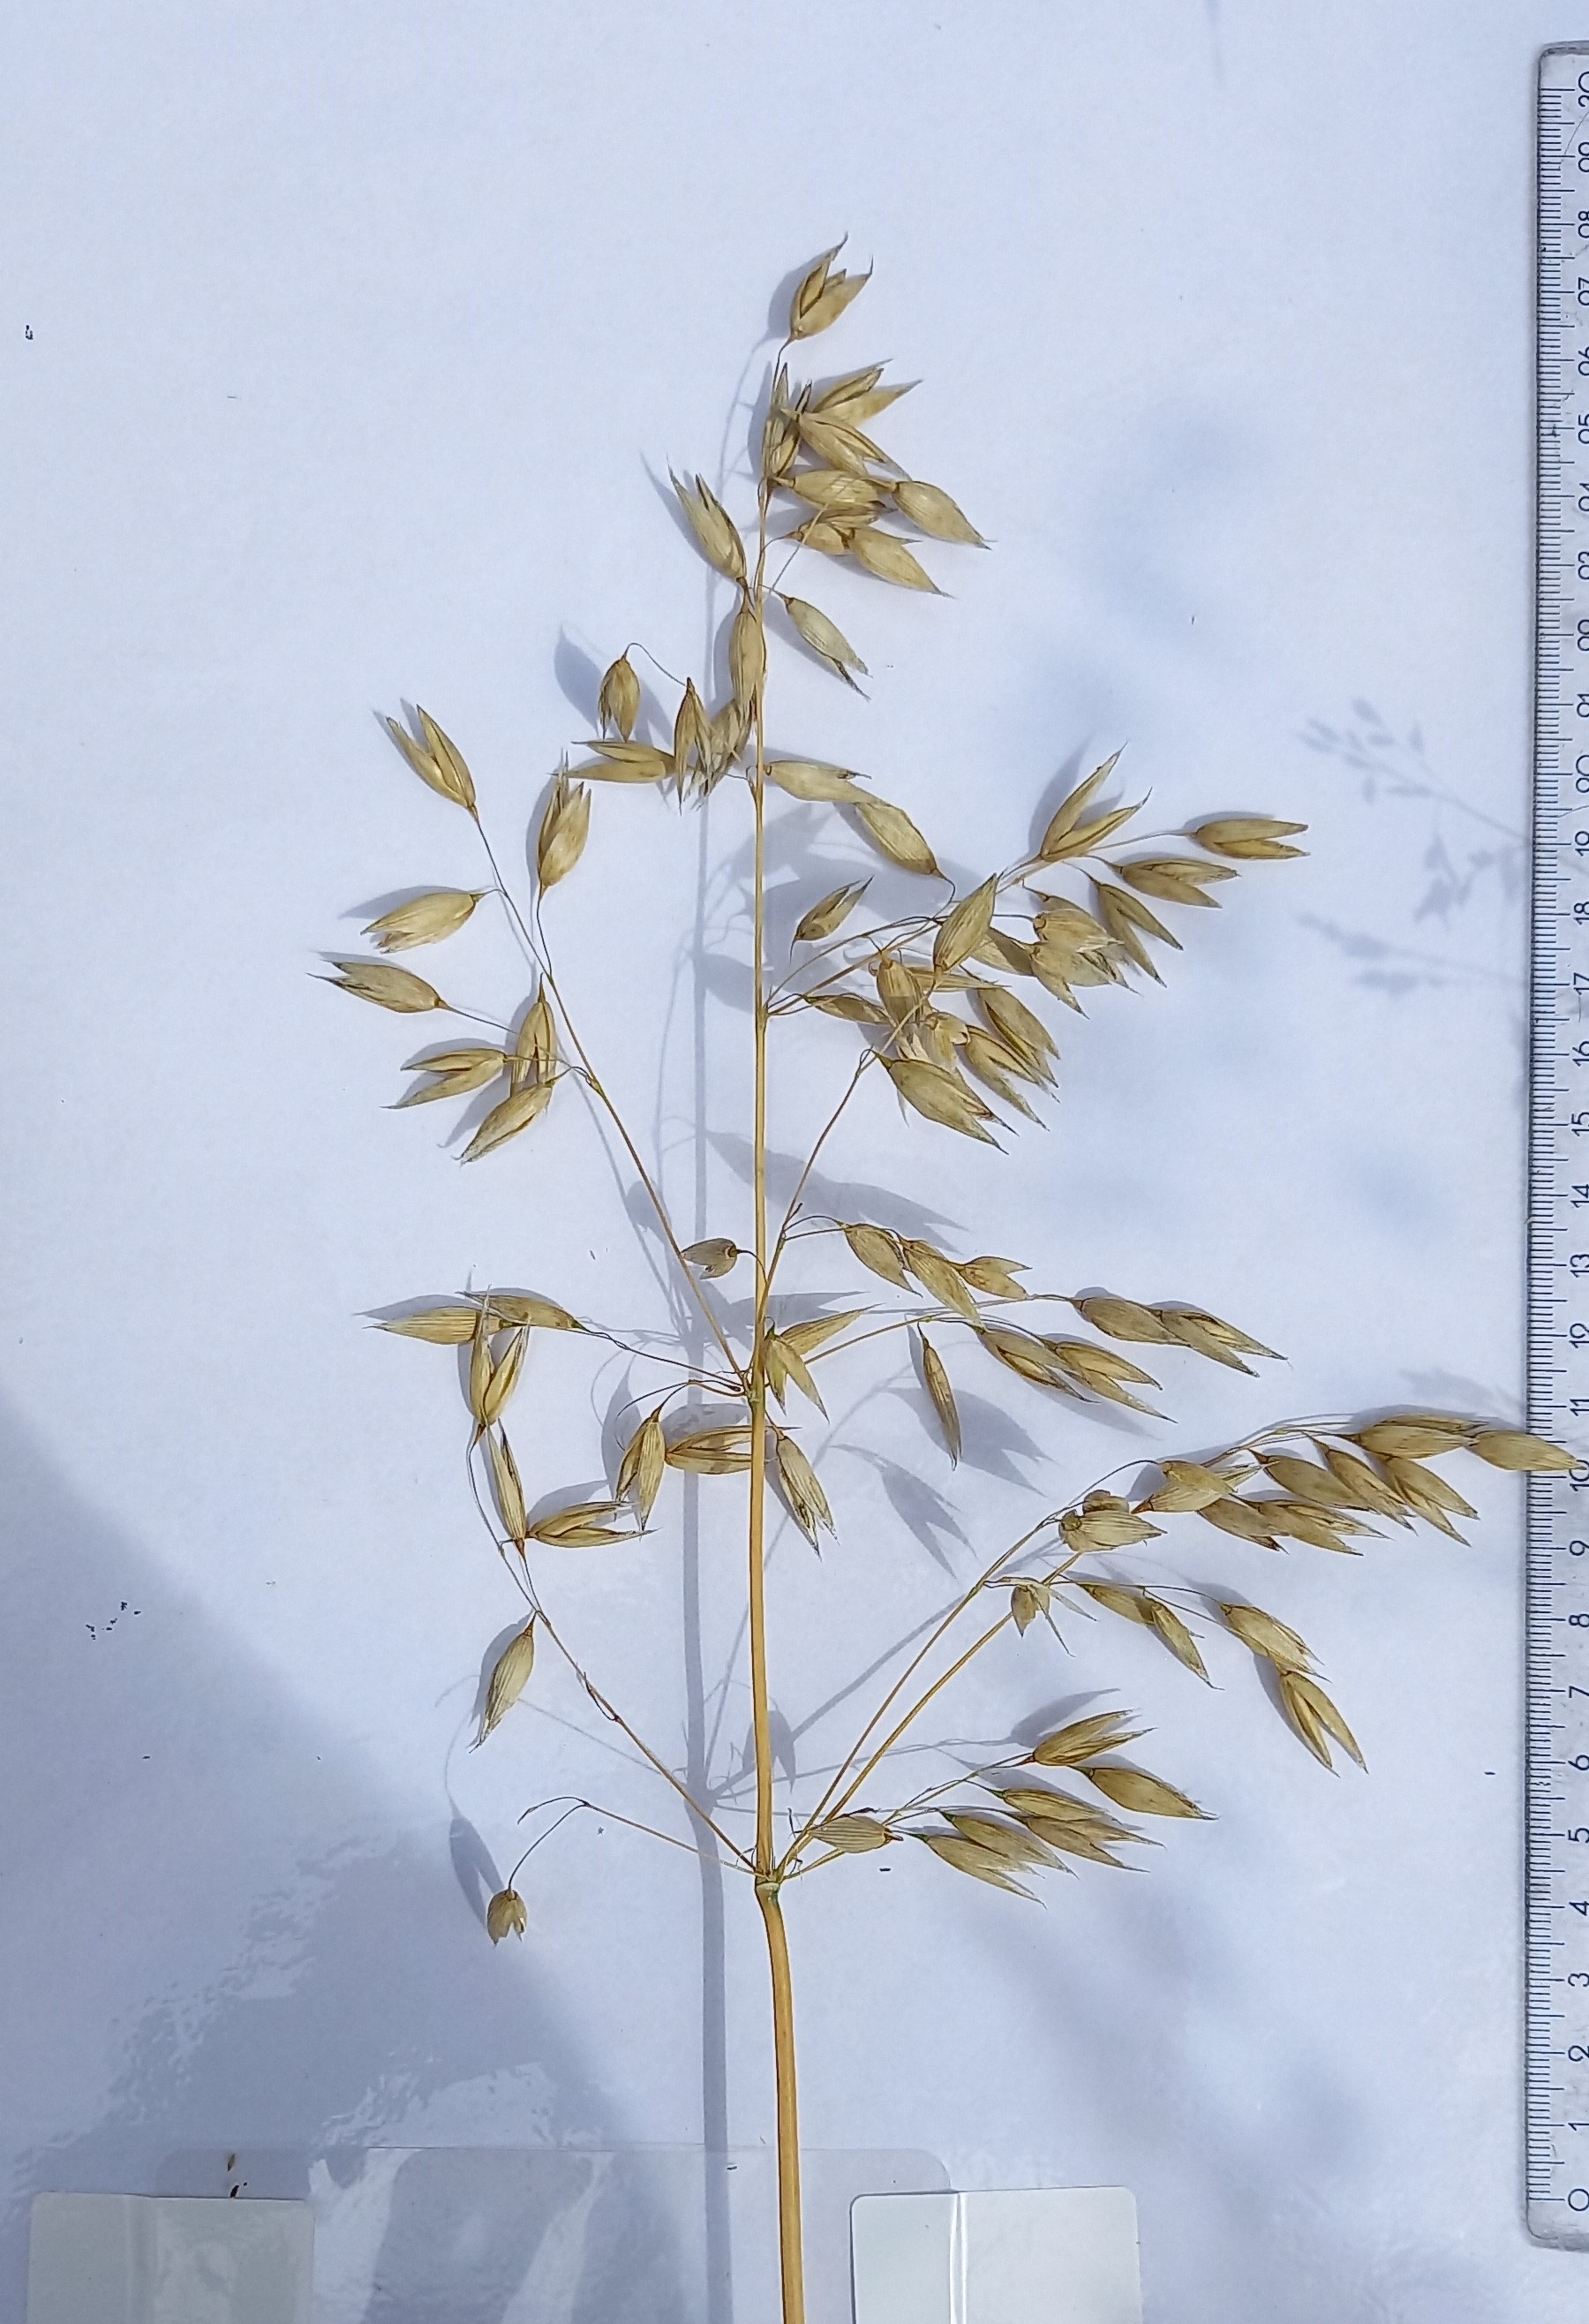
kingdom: Plantae
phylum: Tracheophyta
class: Liliopsida
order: Poales
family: Poaceae
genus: Avena
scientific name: Avena sativa
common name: Oat
